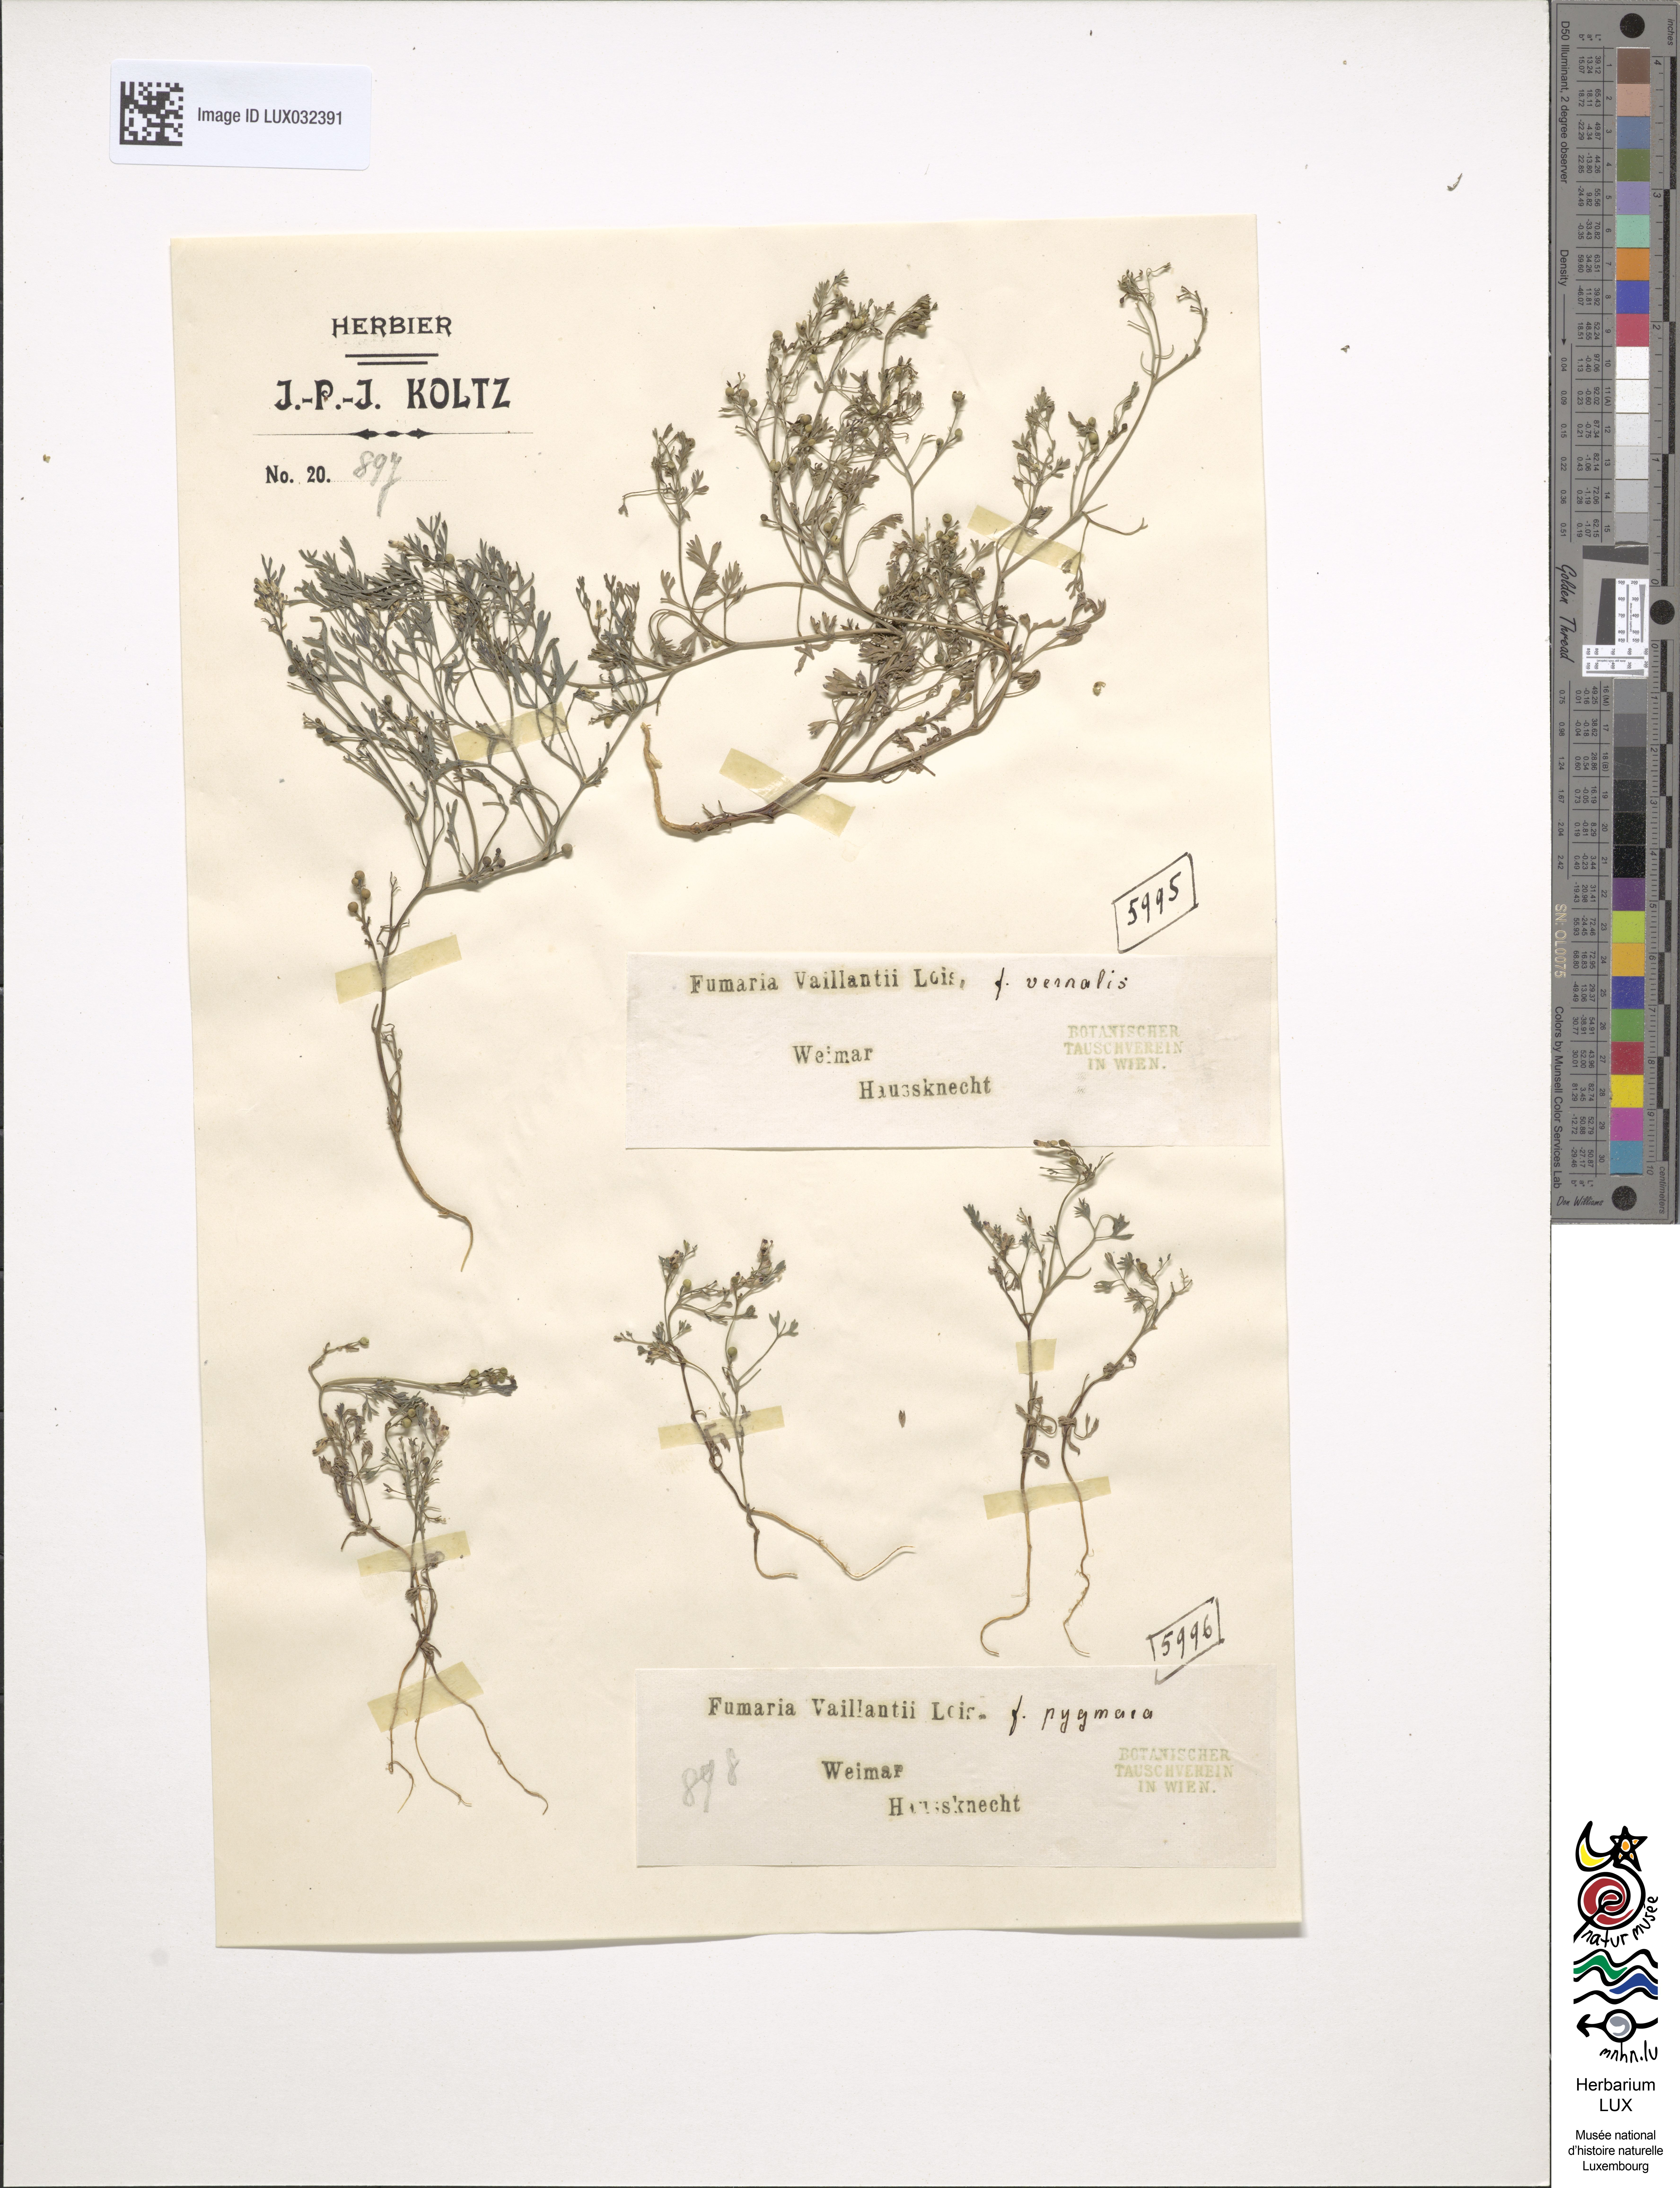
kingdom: Plantae
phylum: Tracheophyta
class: Magnoliopsida
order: Ranunculales
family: Papaveraceae
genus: Fumaria
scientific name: Fumaria vaillantii
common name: Few-flowered fumitory
